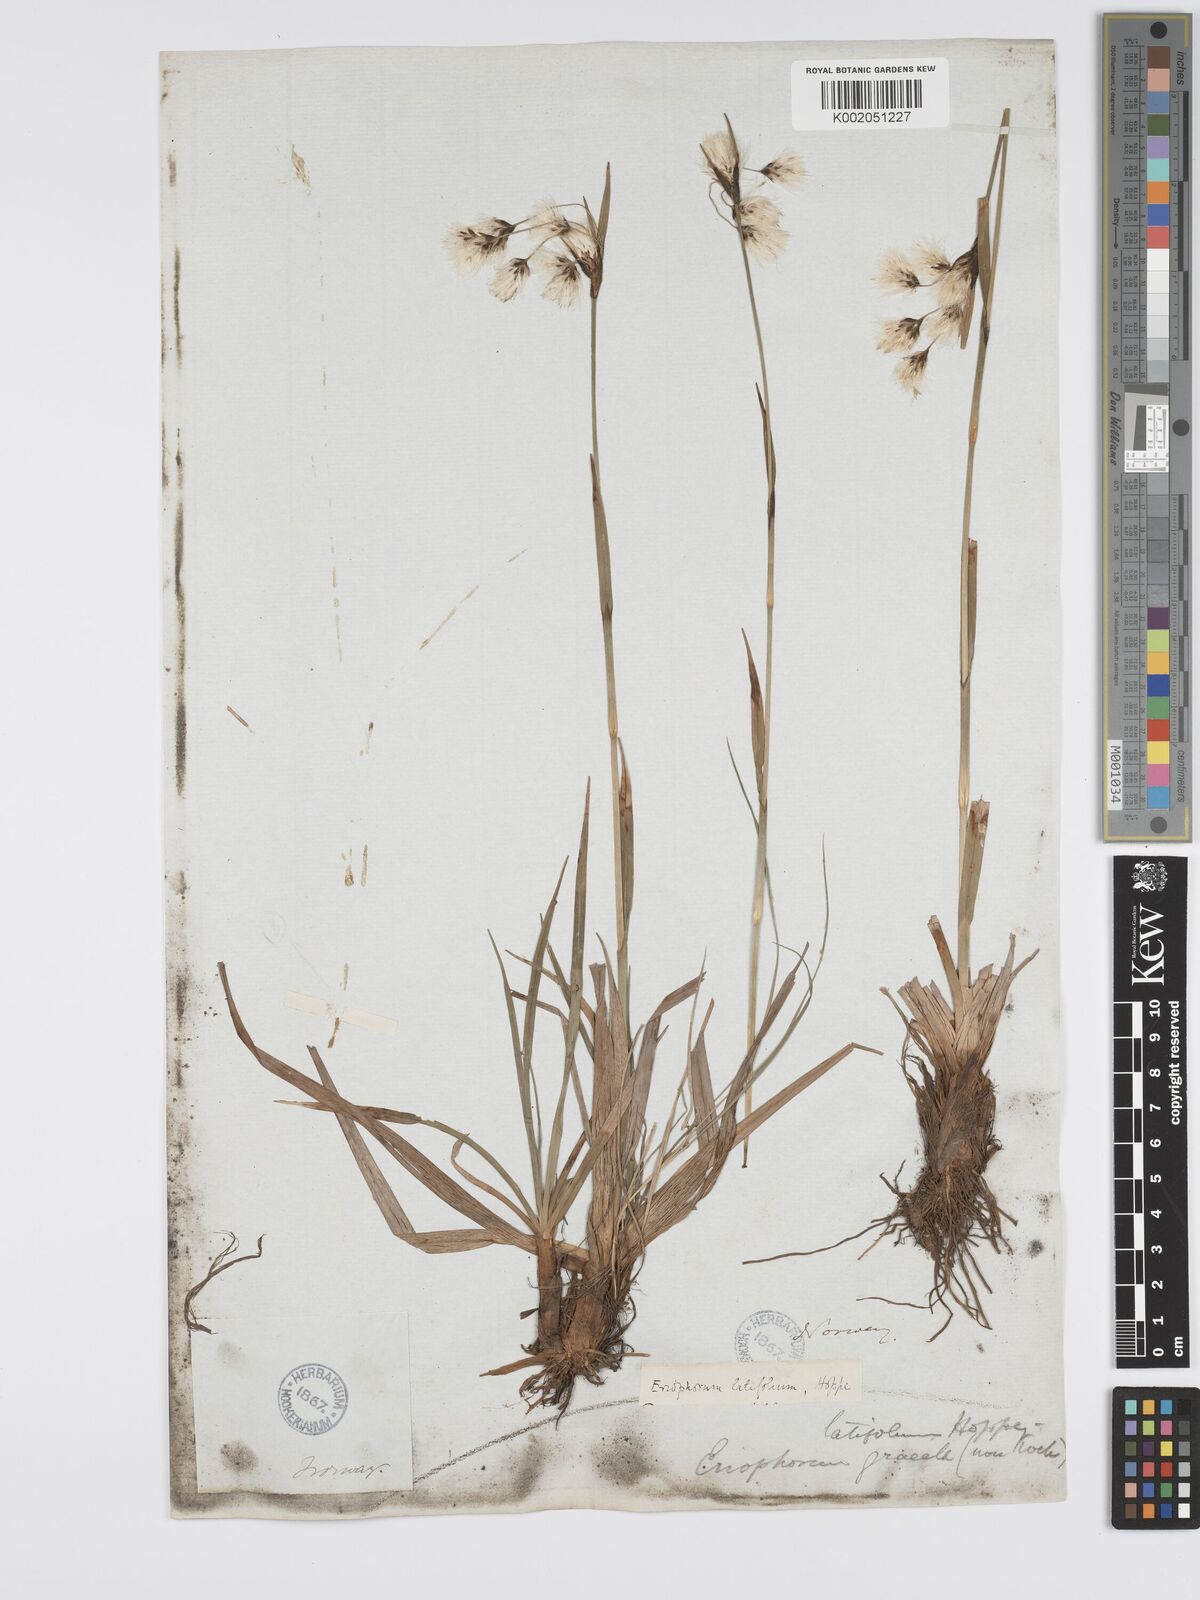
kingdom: Plantae
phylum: Tracheophyta
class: Liliopsida
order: Poales
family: Cyperaceae
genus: Eriophorum
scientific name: Eriophorum latifolium
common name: Broad-leaved cottongrass
